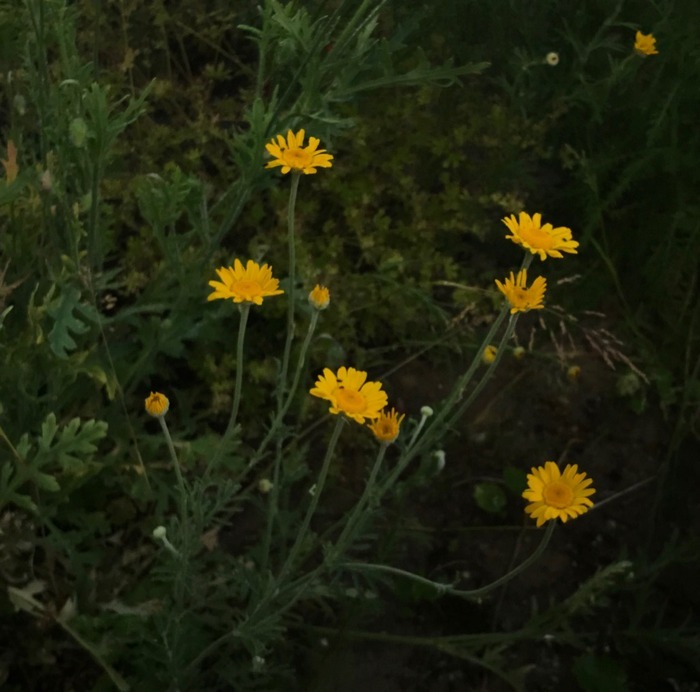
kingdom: Plantae
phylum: Tracheophyta
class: Magnoliopsida
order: Asterales
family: Asteraceae
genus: Cota
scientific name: Cota tinctoria
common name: Farve-gåseurt
